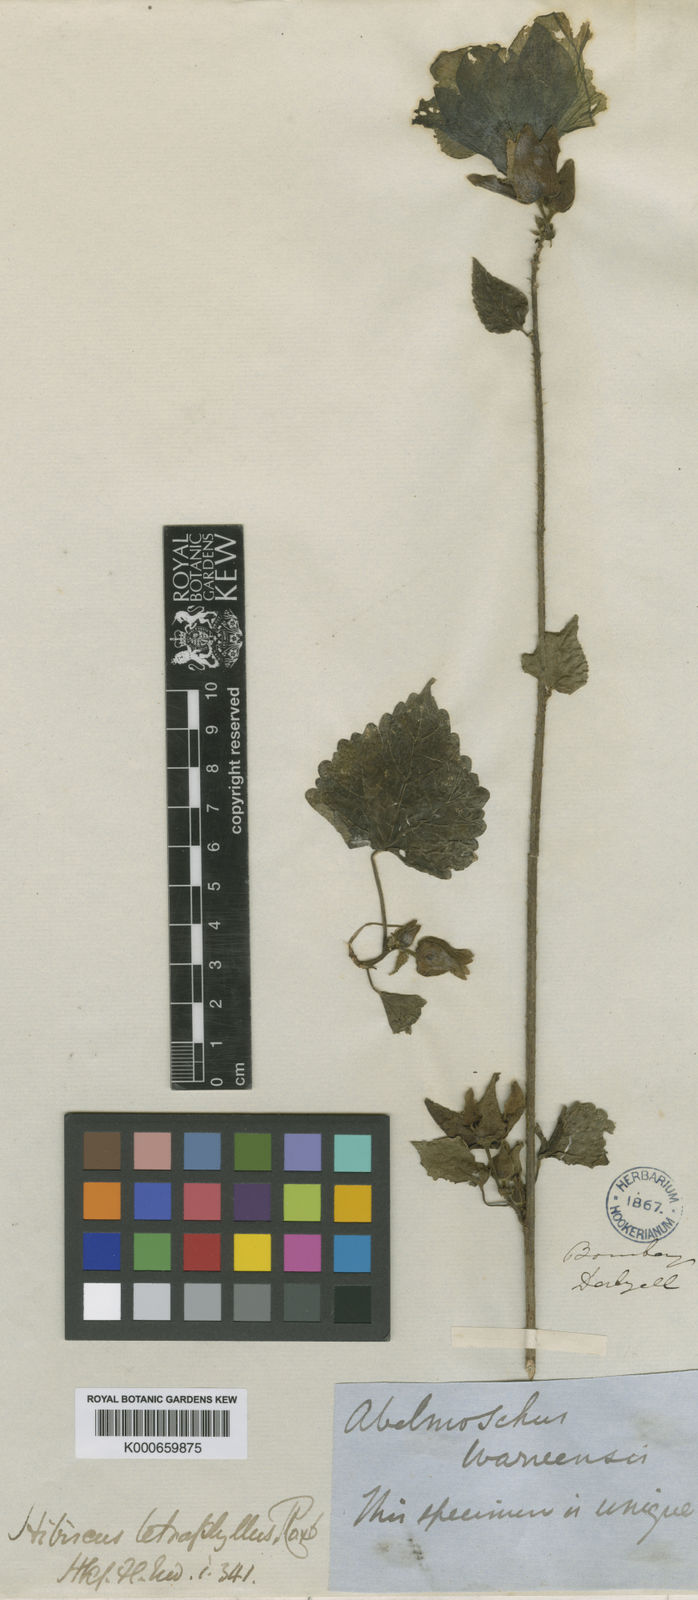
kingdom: Plantae
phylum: Tracheophyta
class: Magnoliopsida
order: Malvales
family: Malvaceae
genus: Abelmoschus
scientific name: Abelmoschus manihot
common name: Sunset muskmallow
